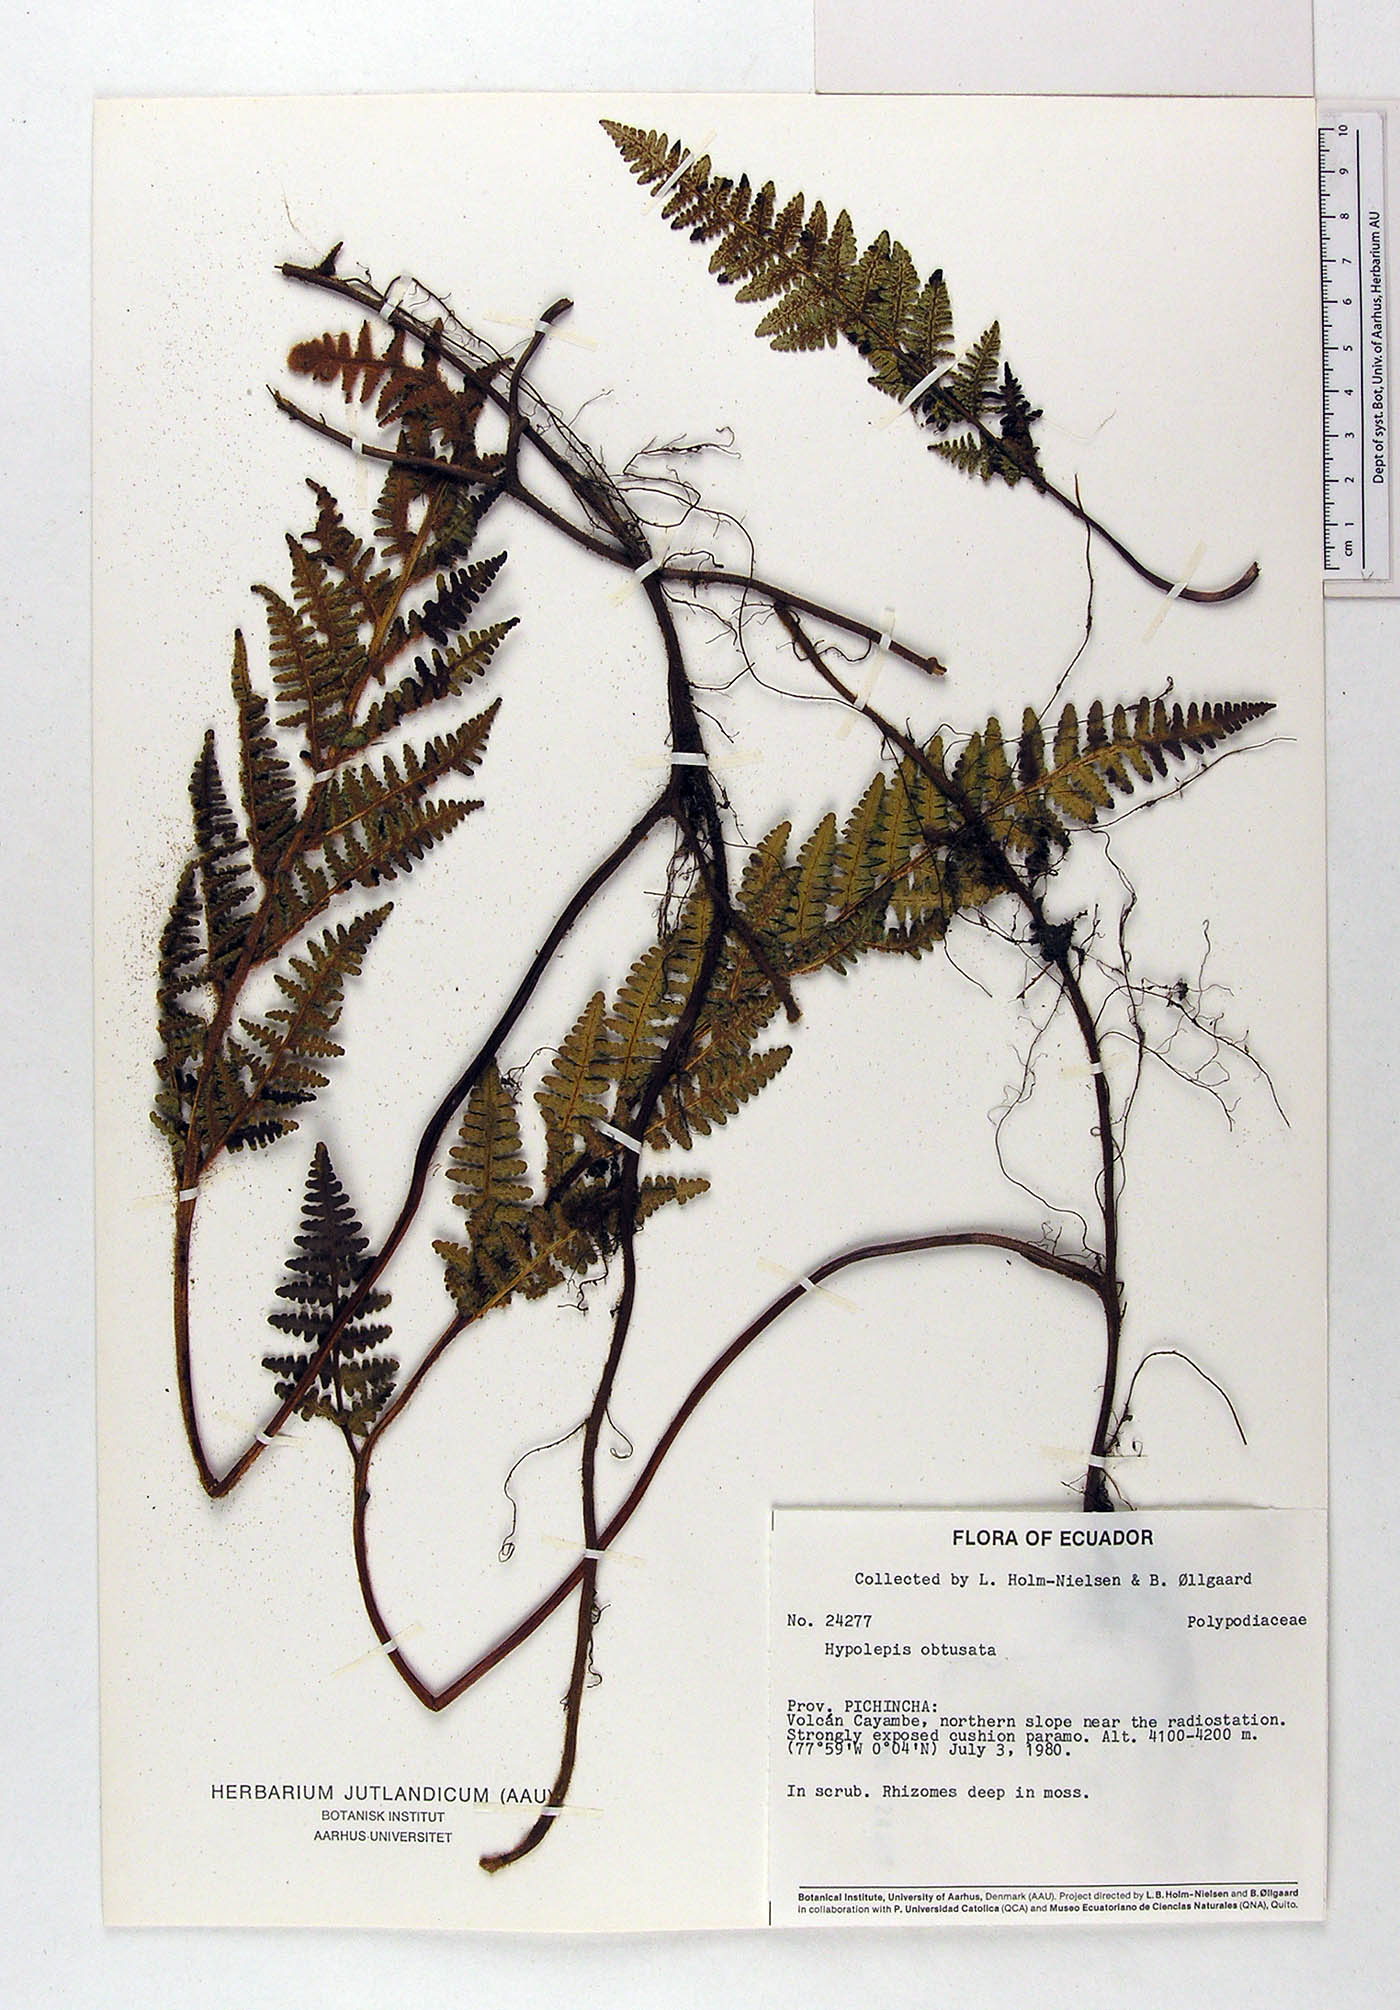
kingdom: Plantae
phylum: Tracheophyta
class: Polypodiopsida
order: Polypodiales
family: Dennstaedtiaceae
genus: Hypolepis
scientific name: Hypolepis obtusata
